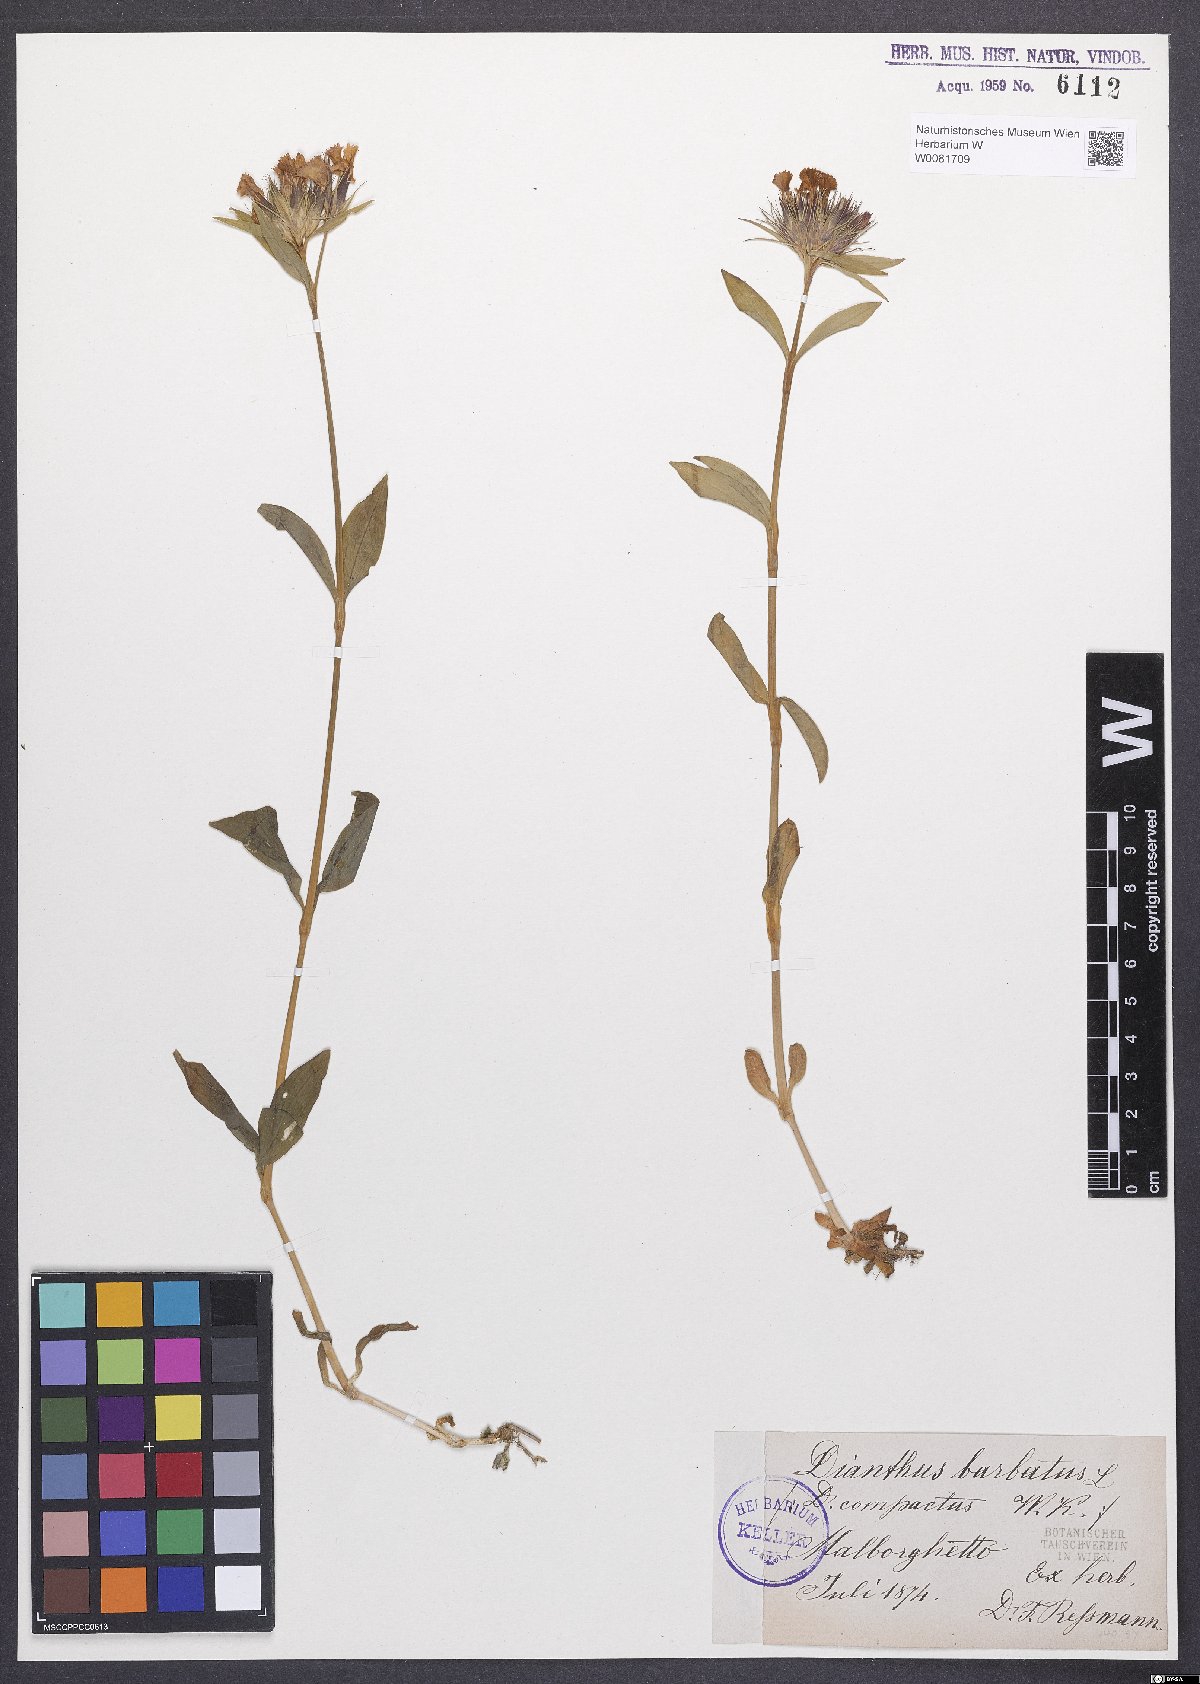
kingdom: Plantae
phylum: Tracheophyta
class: Magnoliopsida
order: Caryophyllales
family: Caryophyllaceae
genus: Dianthus
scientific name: Dianthus barbatus
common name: Sweet-william
